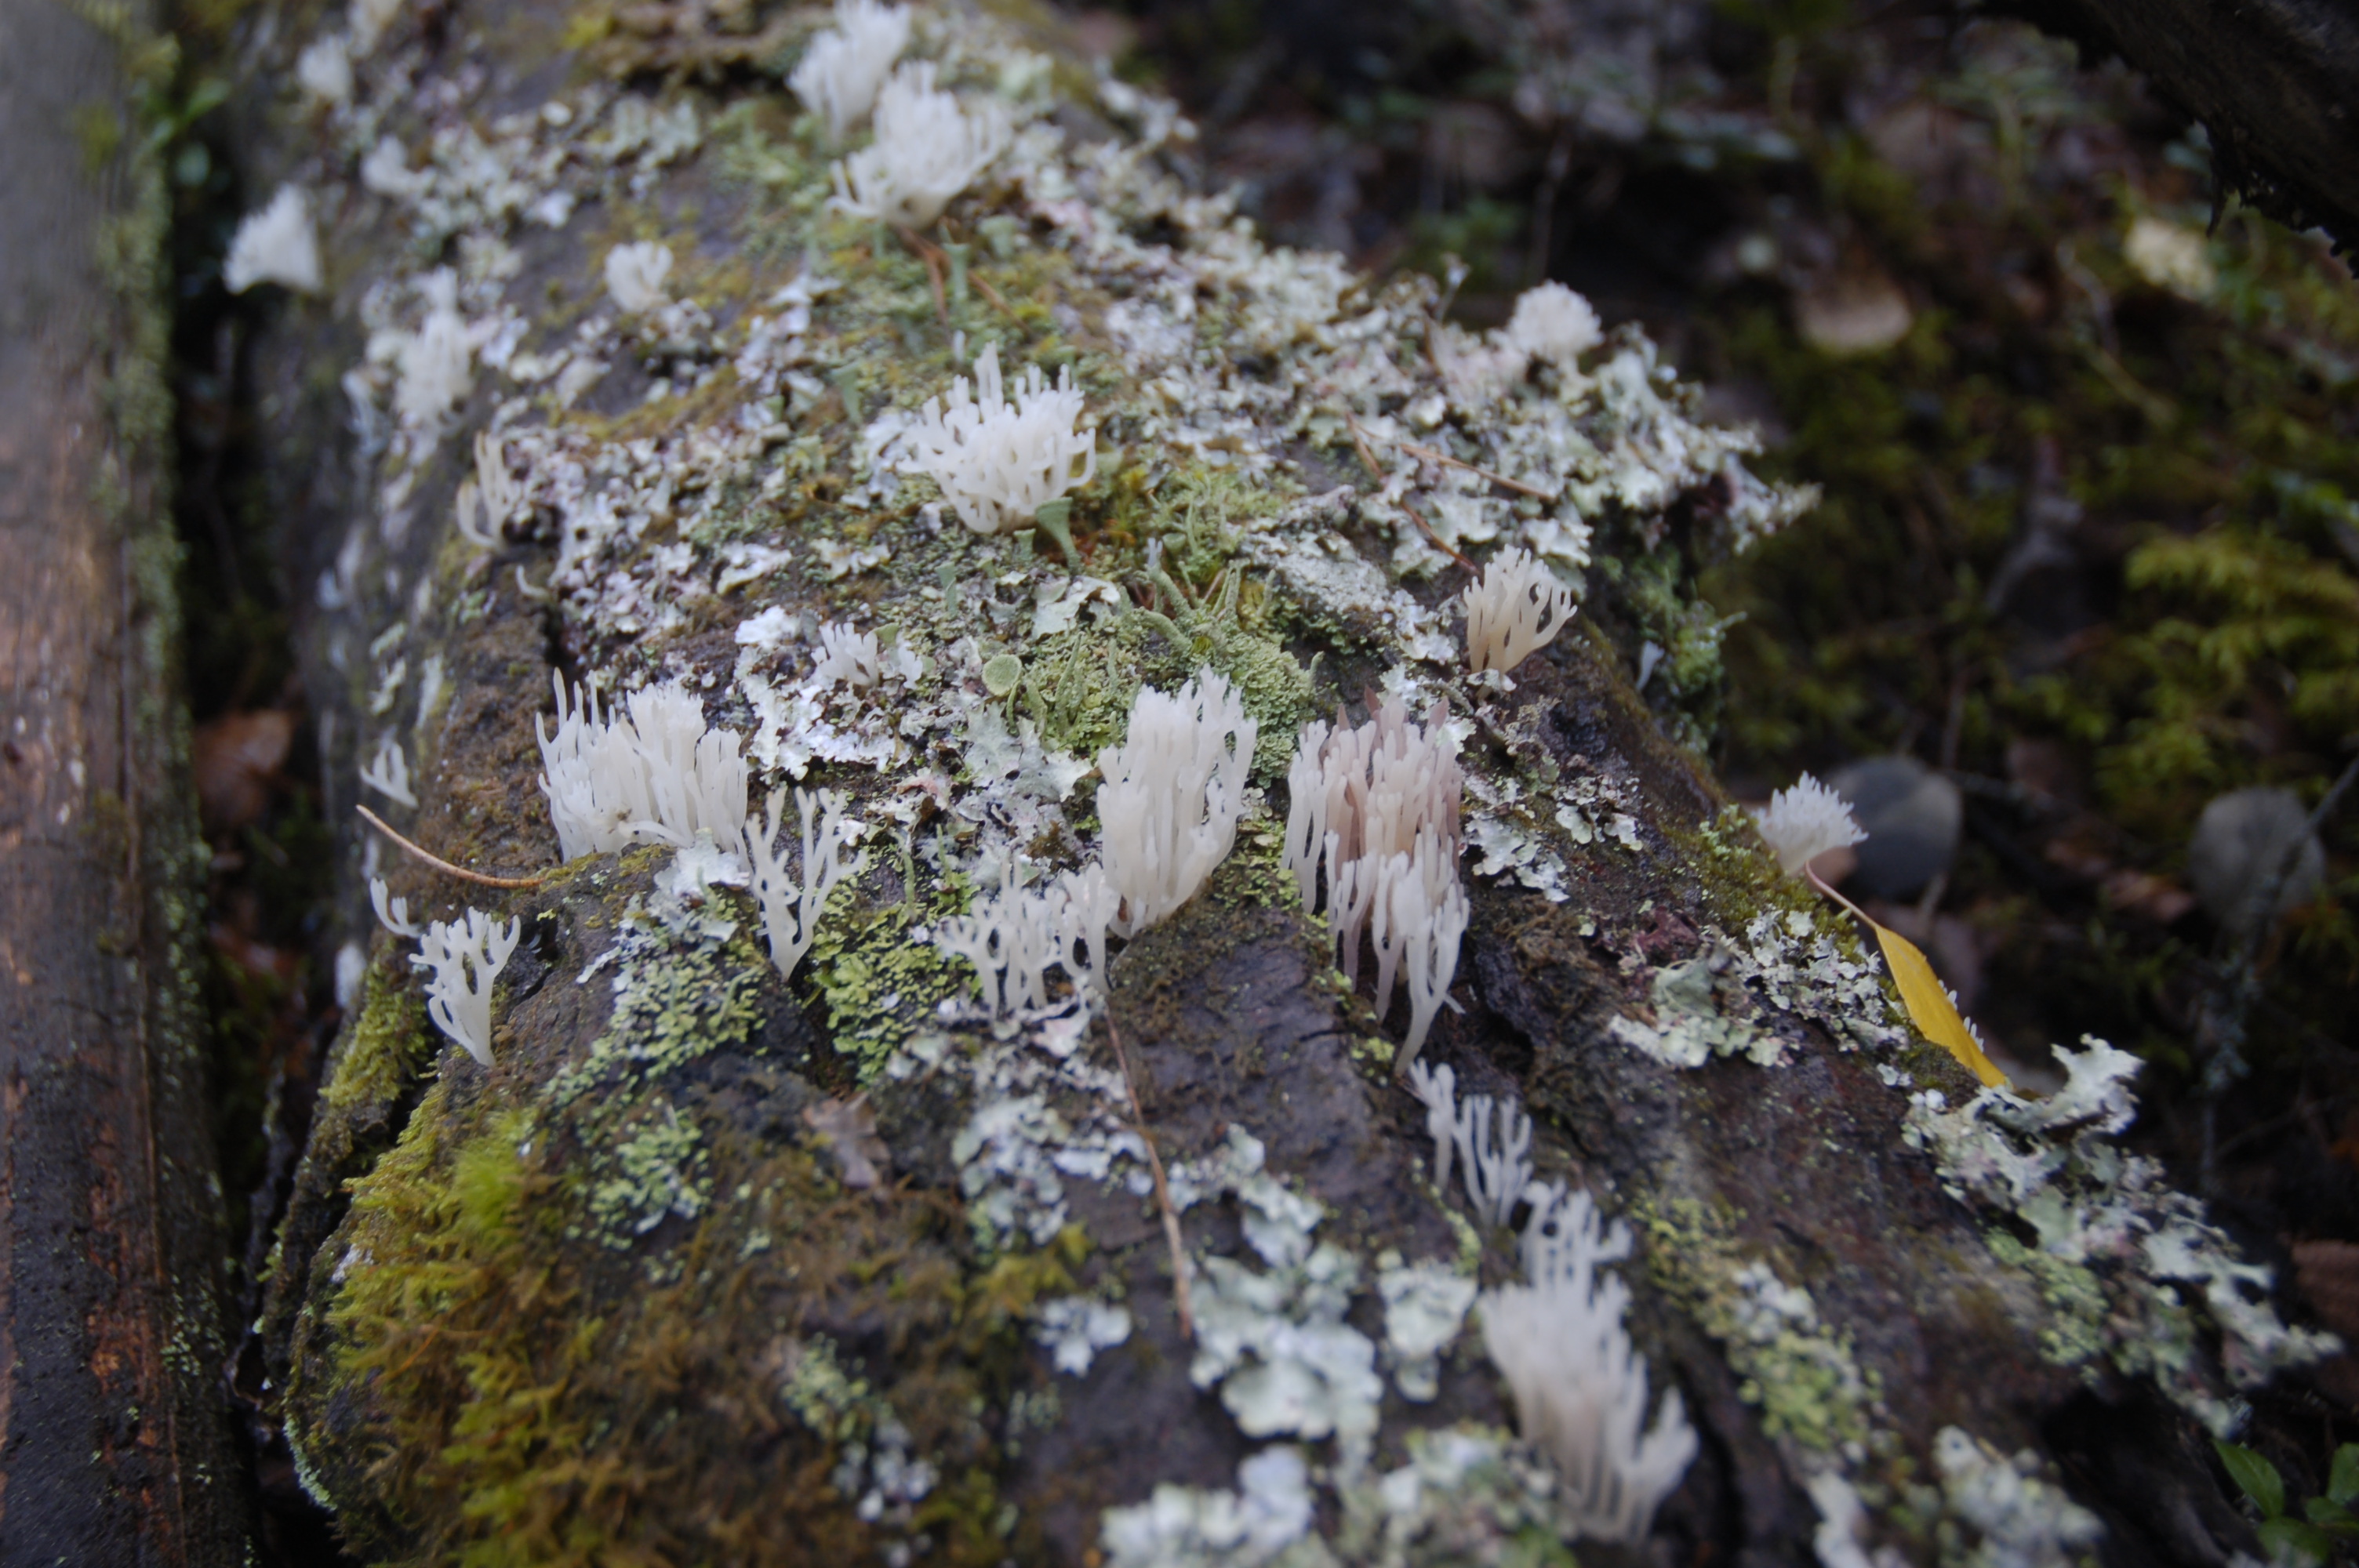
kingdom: Fungi
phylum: Basidiomycota
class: Agaricomycetes
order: Gomphales
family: Lentariaceae
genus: Lentaria
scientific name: Lentaria afflata
